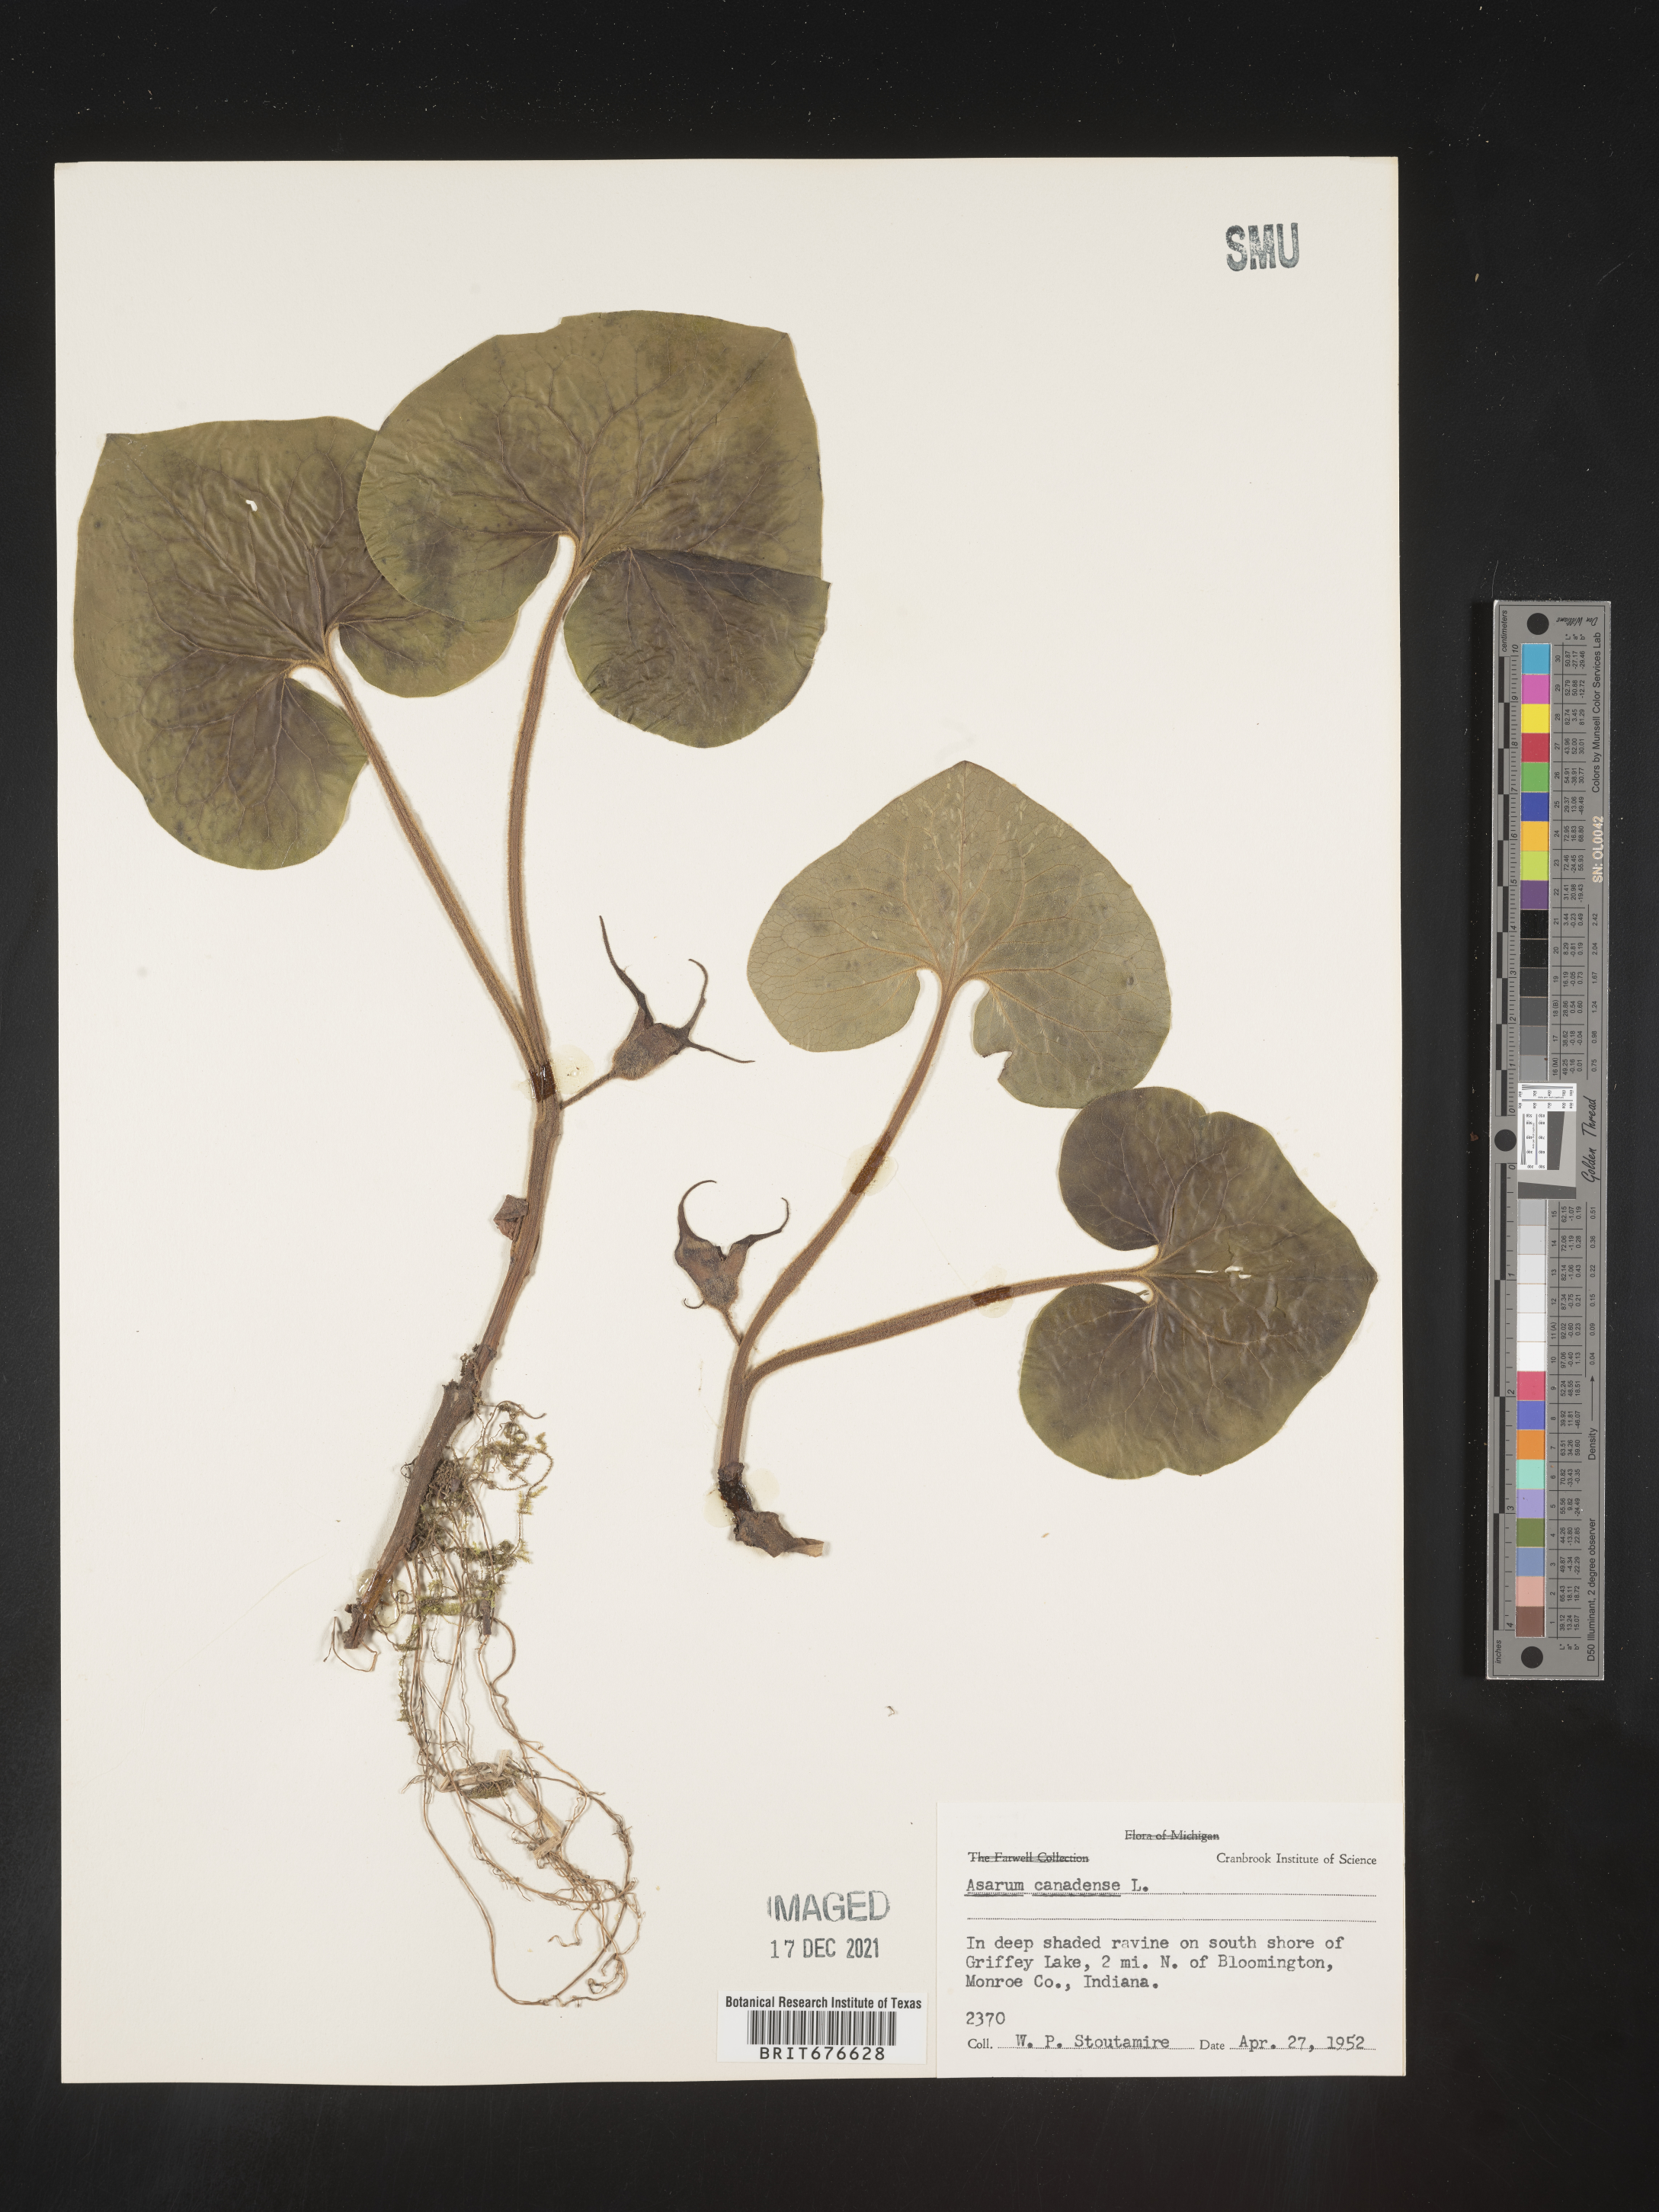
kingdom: Plantae
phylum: Tracheophyta
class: Magnoliopsida
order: Piperales
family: Aristolochiaceae
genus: Asarum
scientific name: Asarum canadense
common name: Wild ginger
